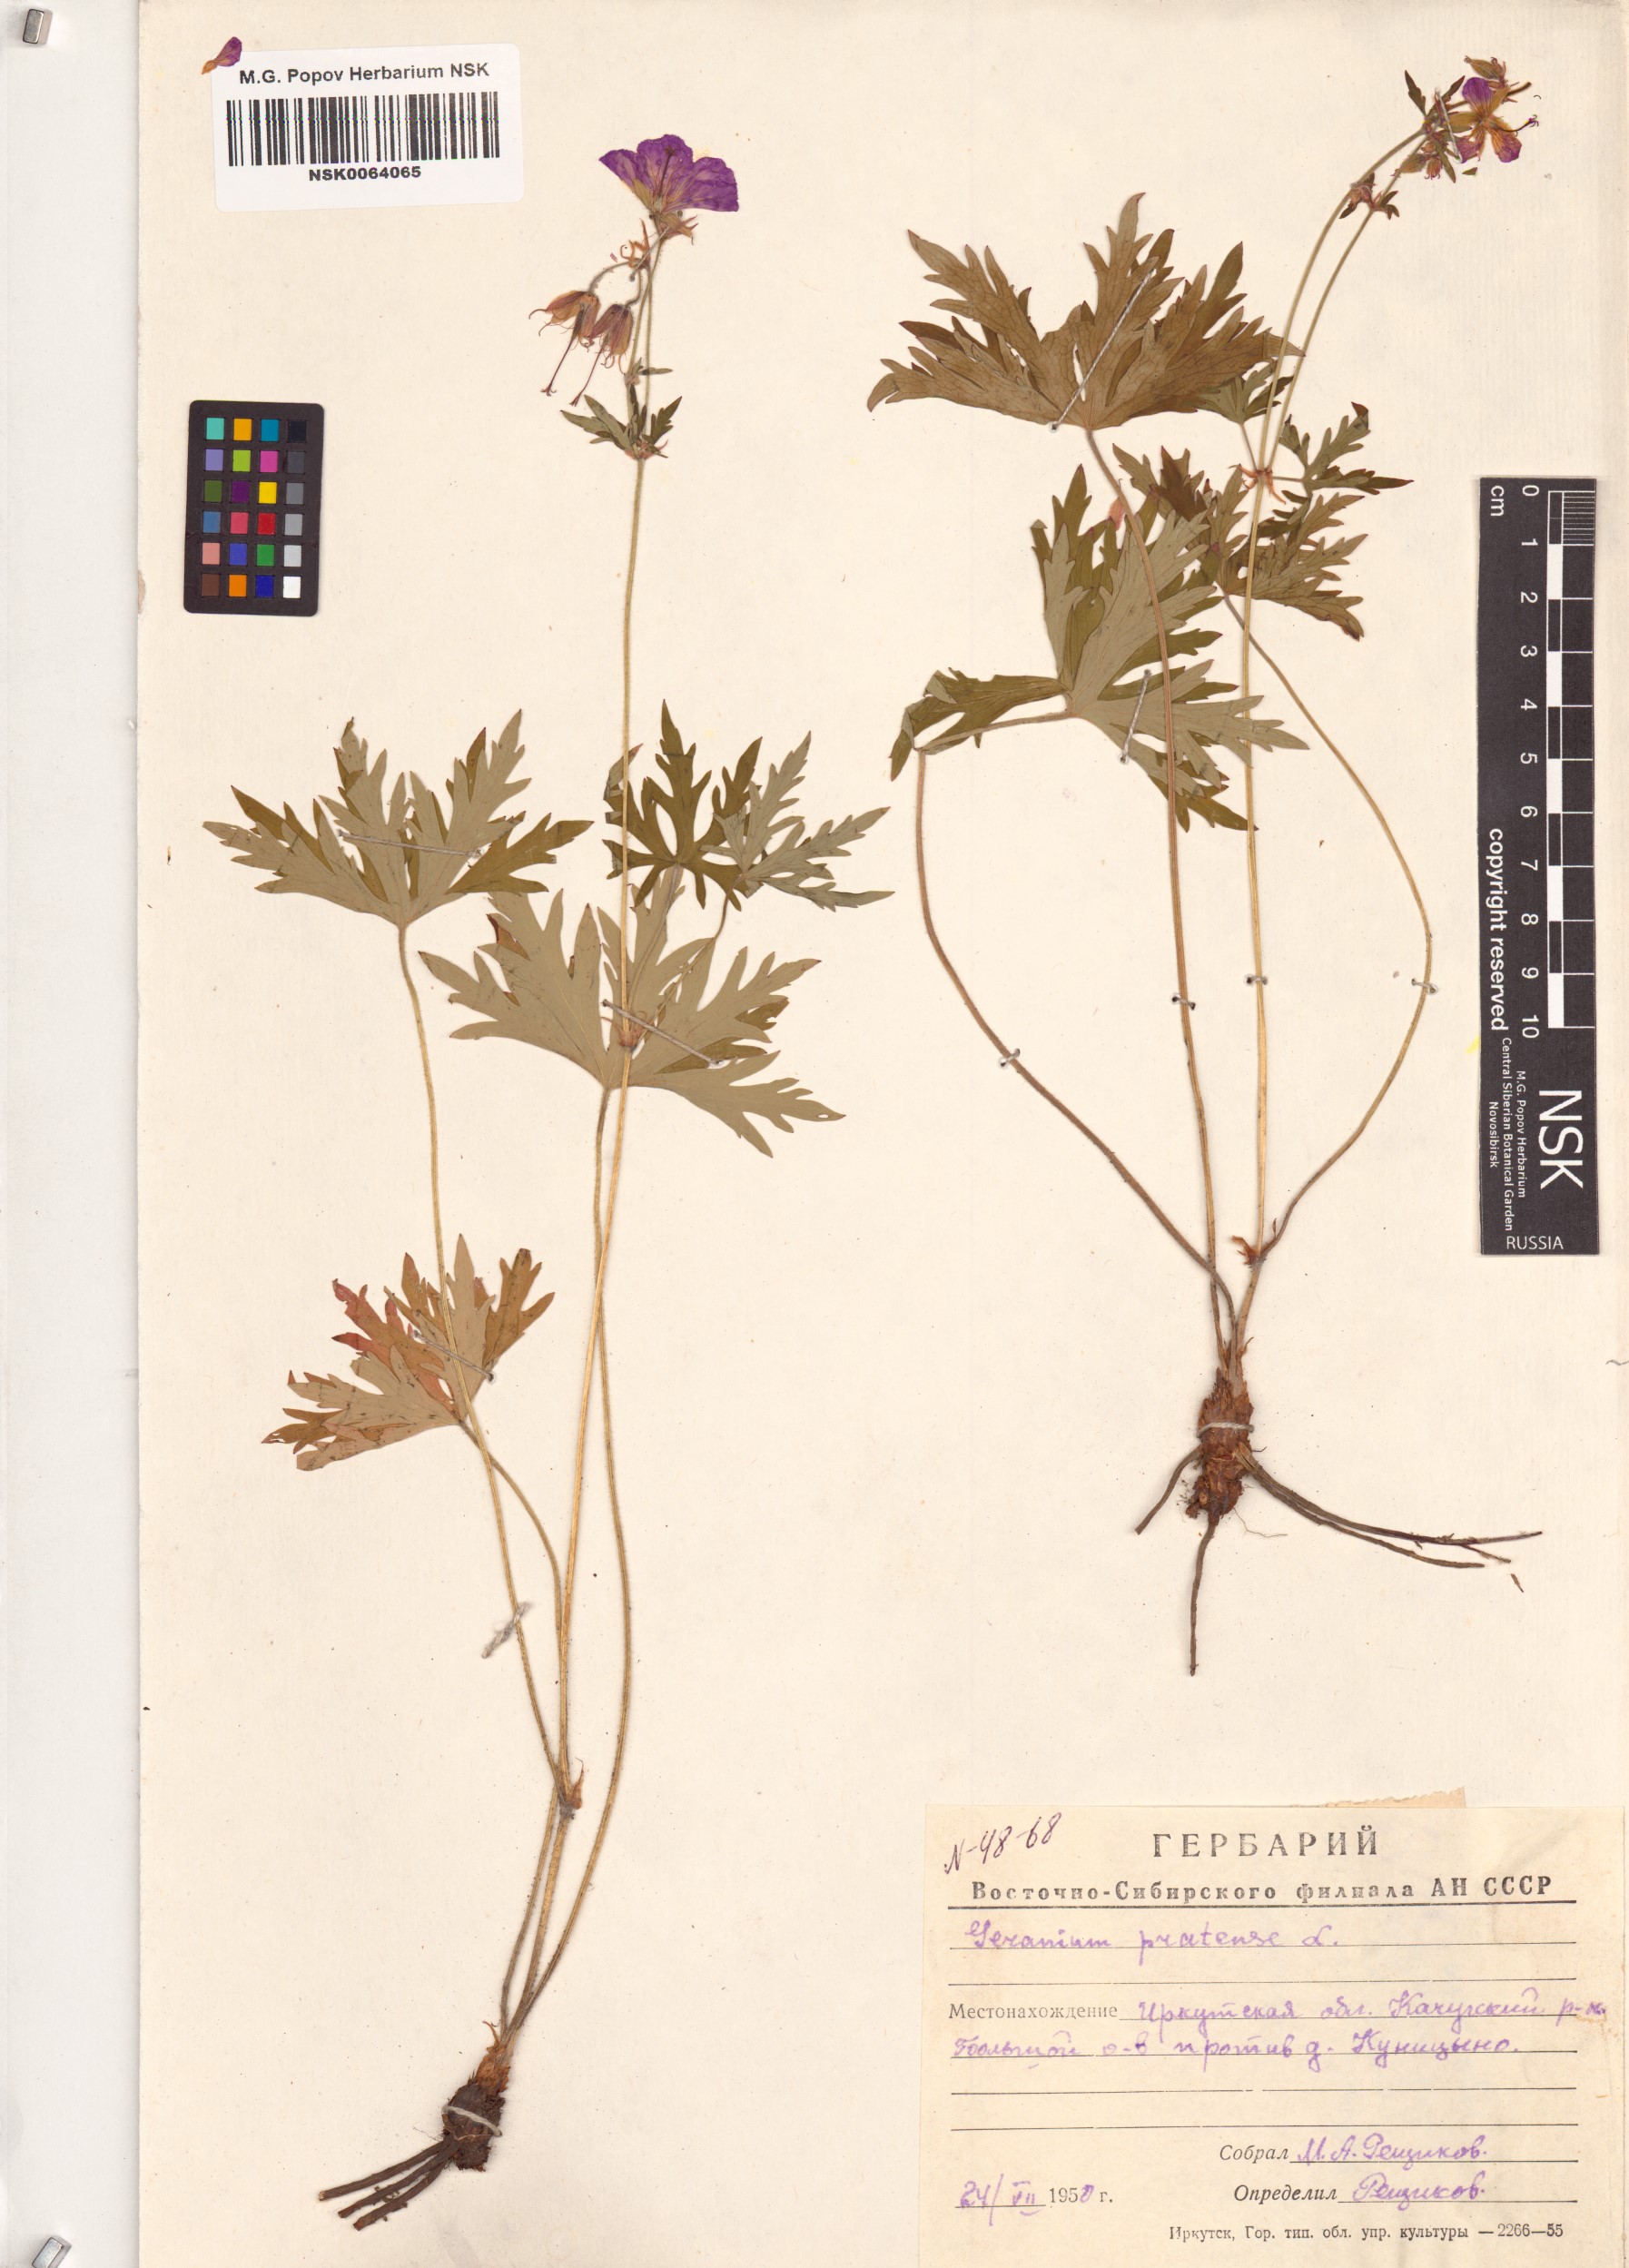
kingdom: Plantae
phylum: Tracheophyta
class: Magnoliopsida
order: Geraniales
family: Geraniaceae
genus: Geranium
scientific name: Geranium pratense
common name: Meadow crane's-bill
